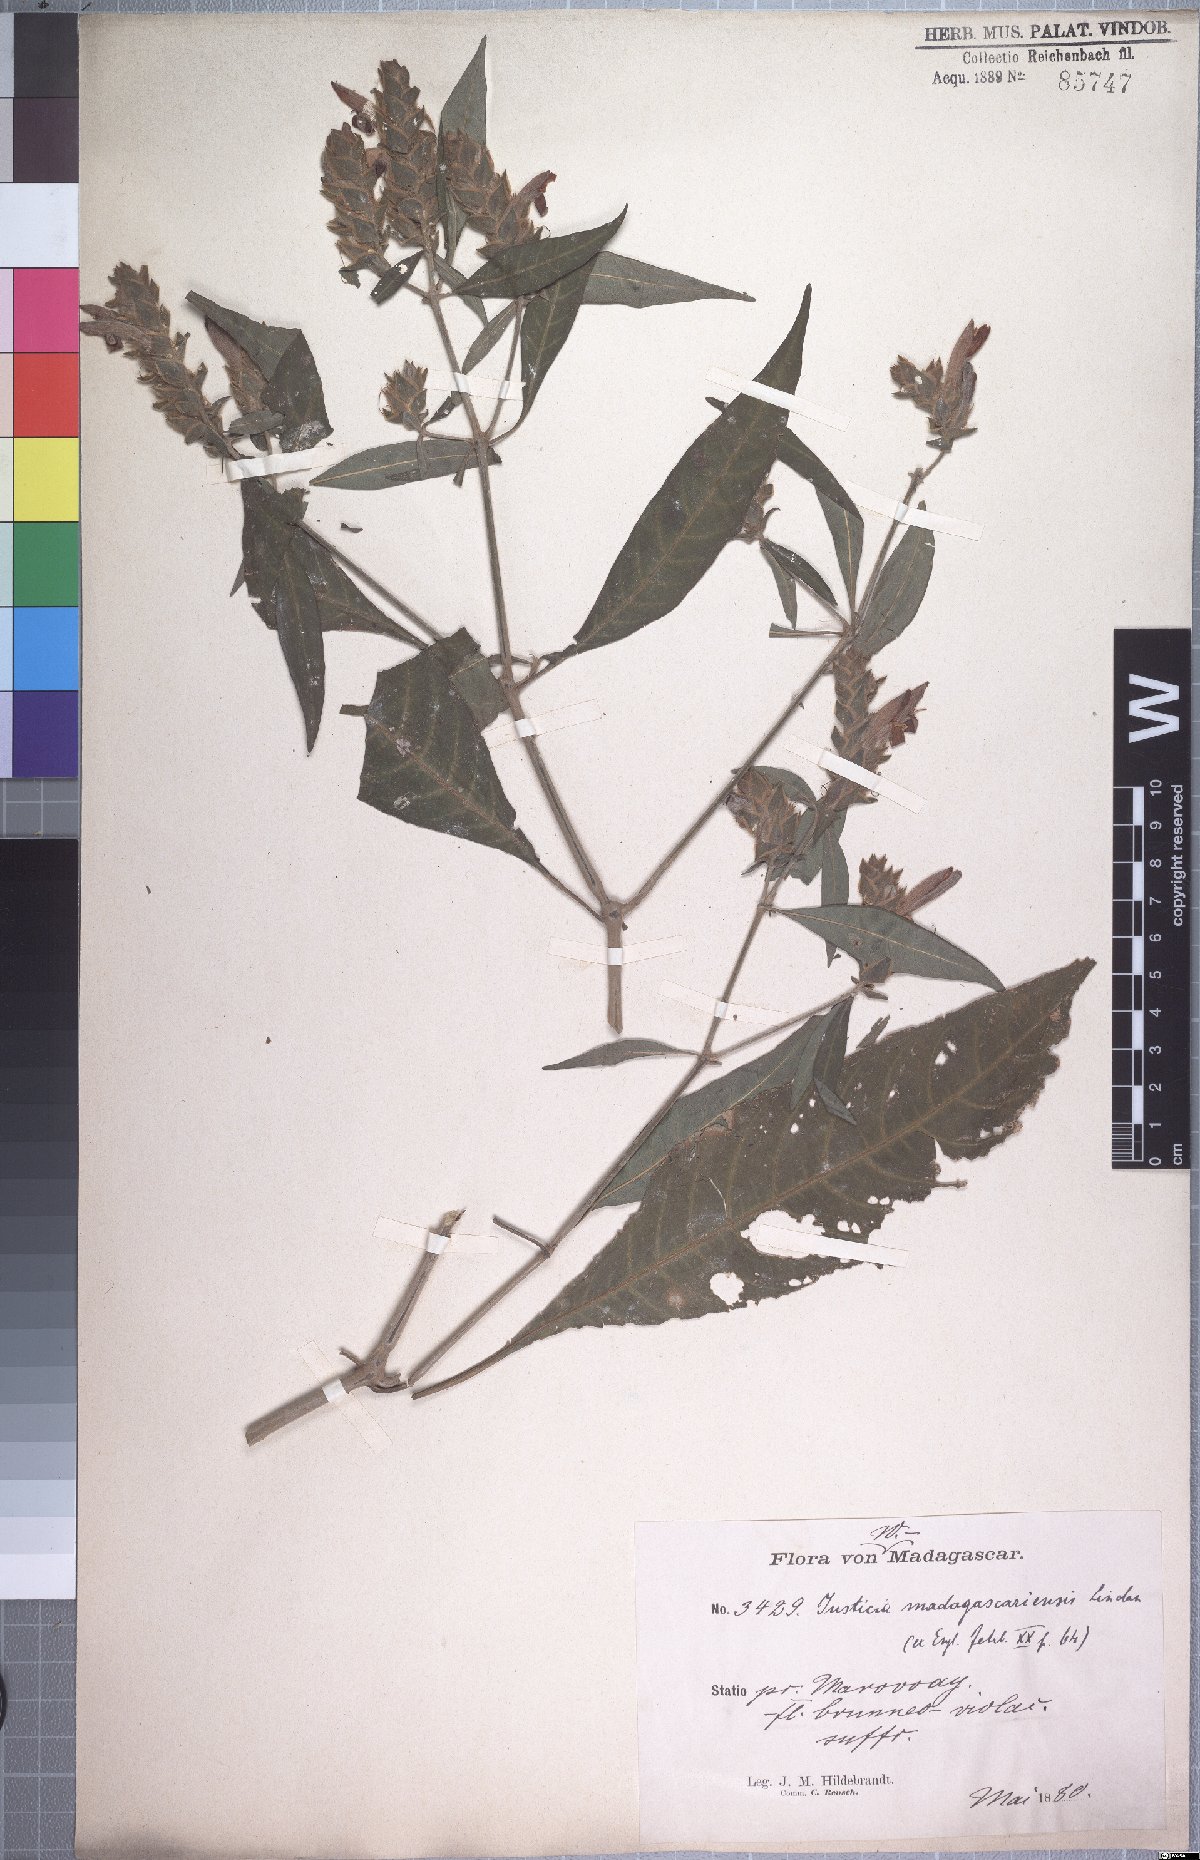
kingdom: Plantae
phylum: Tracheophyta
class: Magnoliopsida
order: Lamiales
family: Acanthaceae
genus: Justicia
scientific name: Justicia madagascariensis
